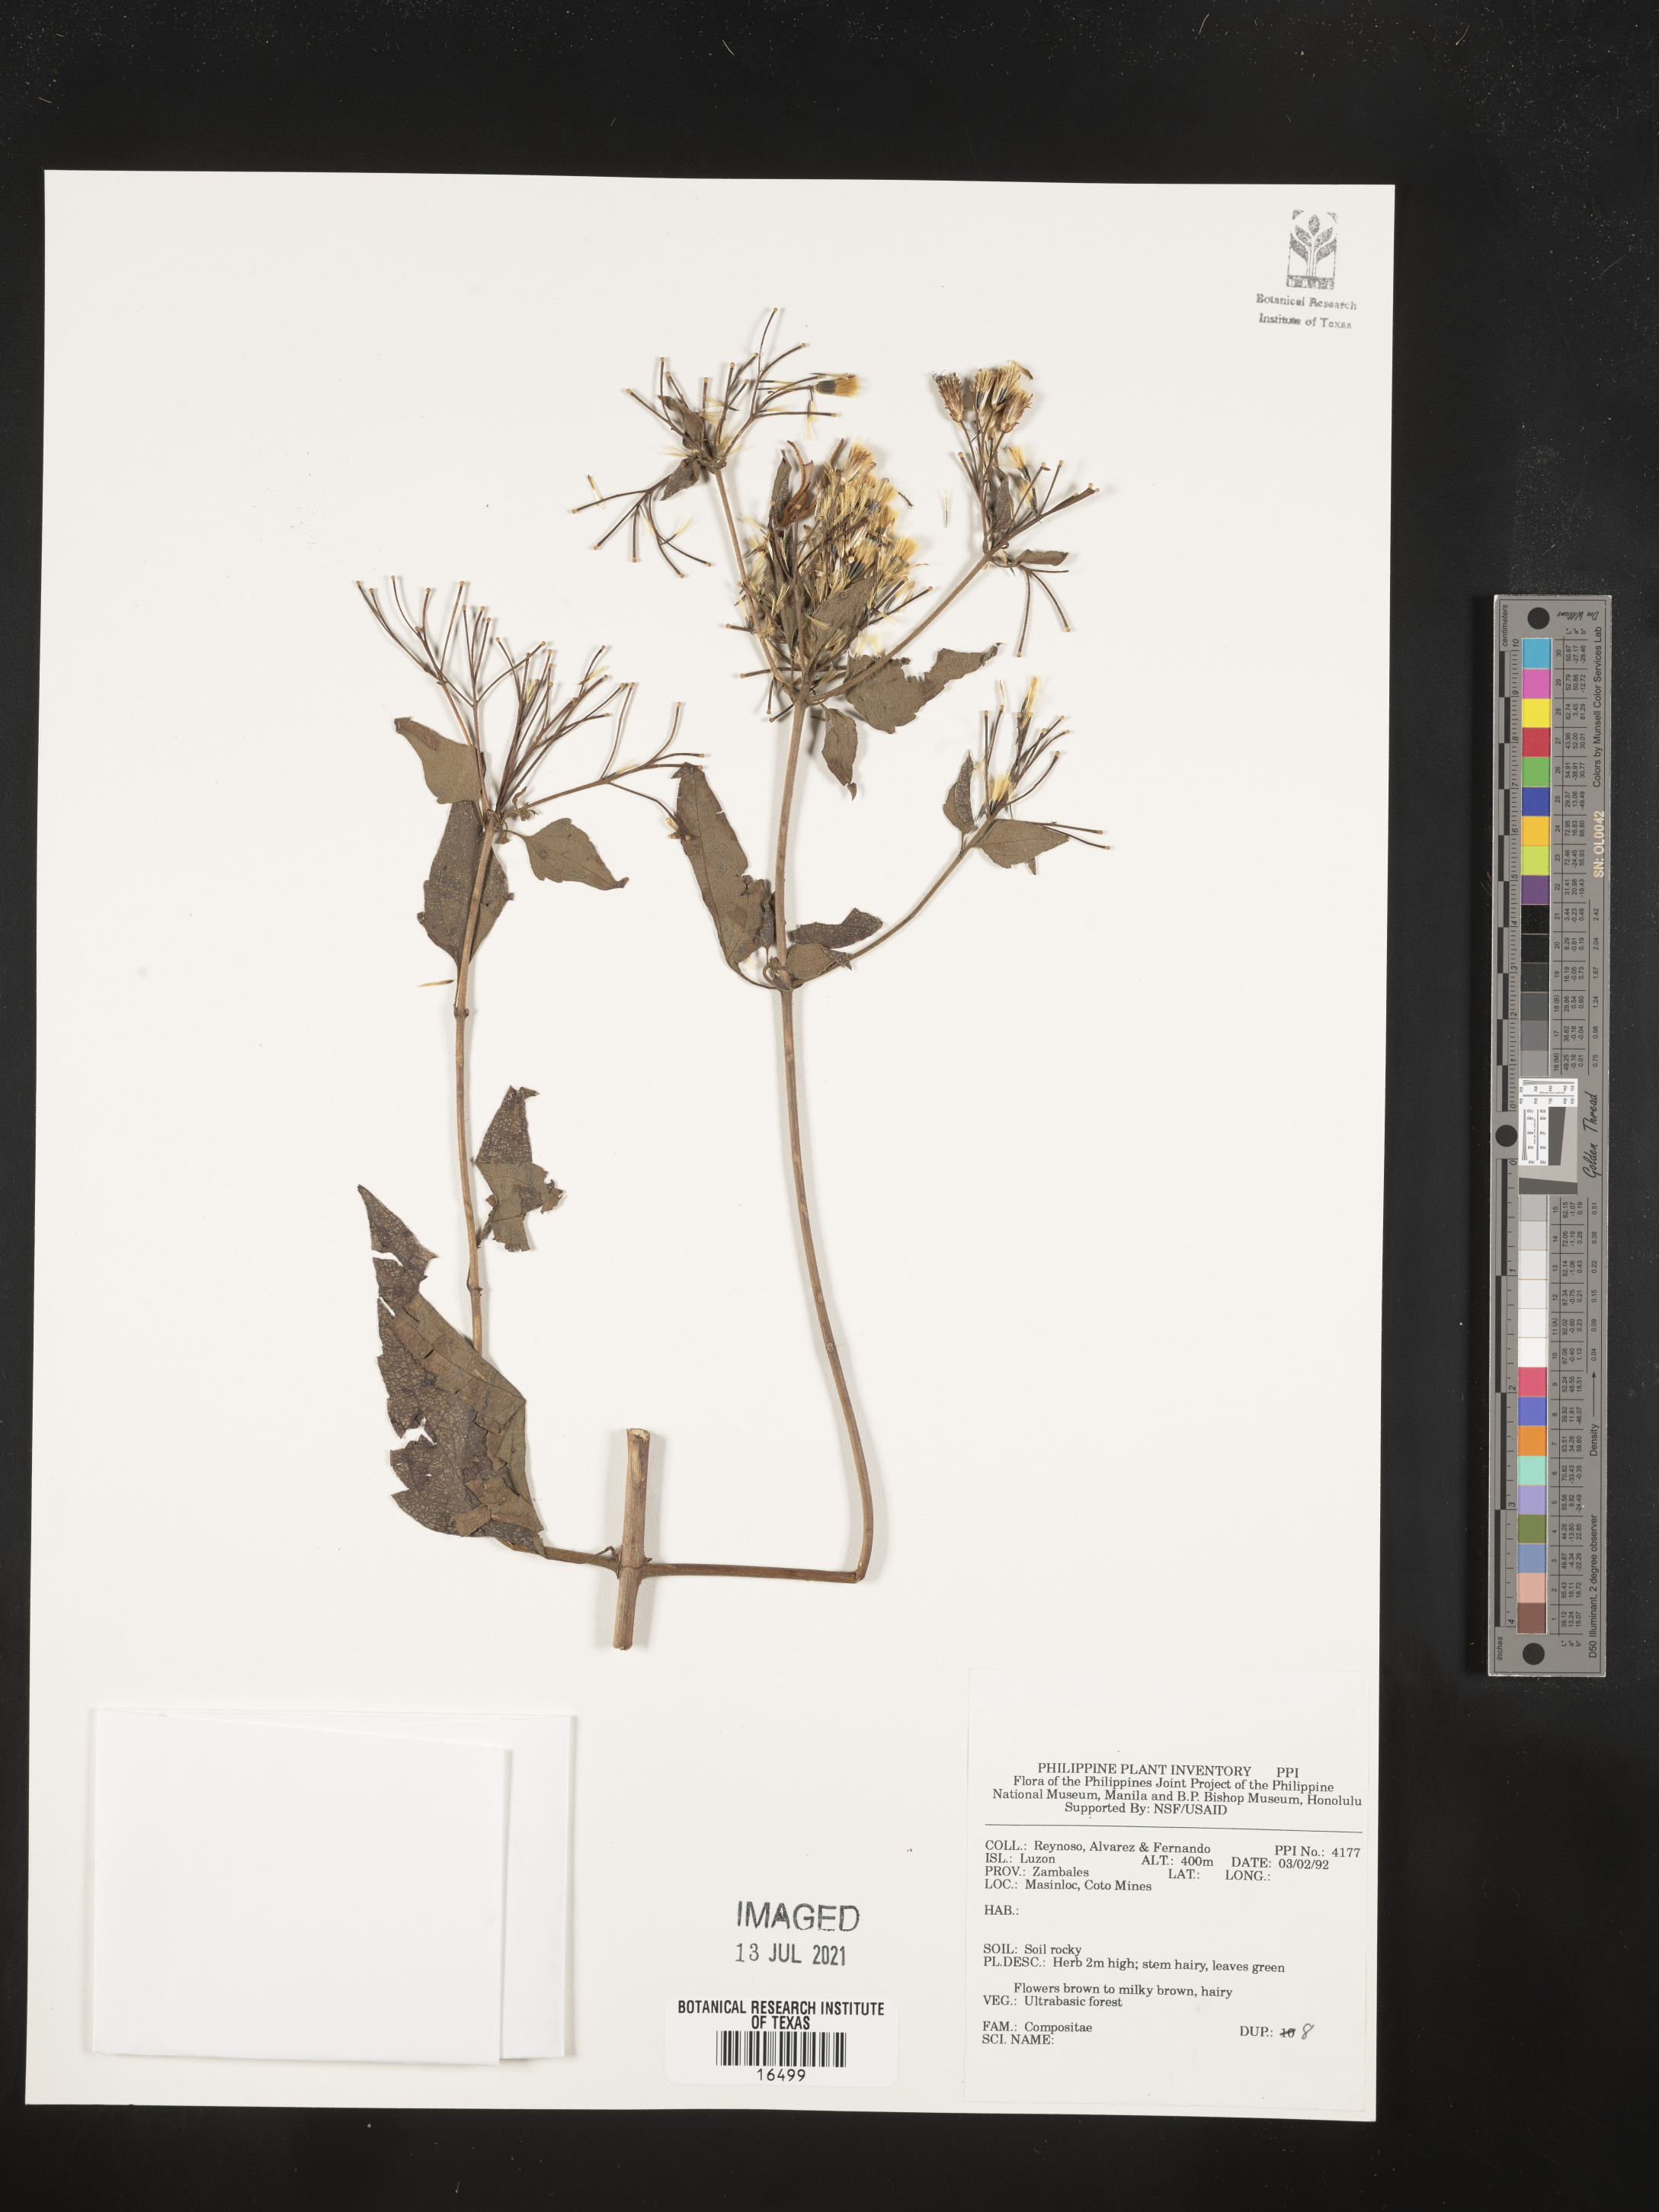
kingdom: Plantae
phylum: Tracheophyta
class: Magnoliopsida
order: Asterales
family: Asteraceae
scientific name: Asteraceae
